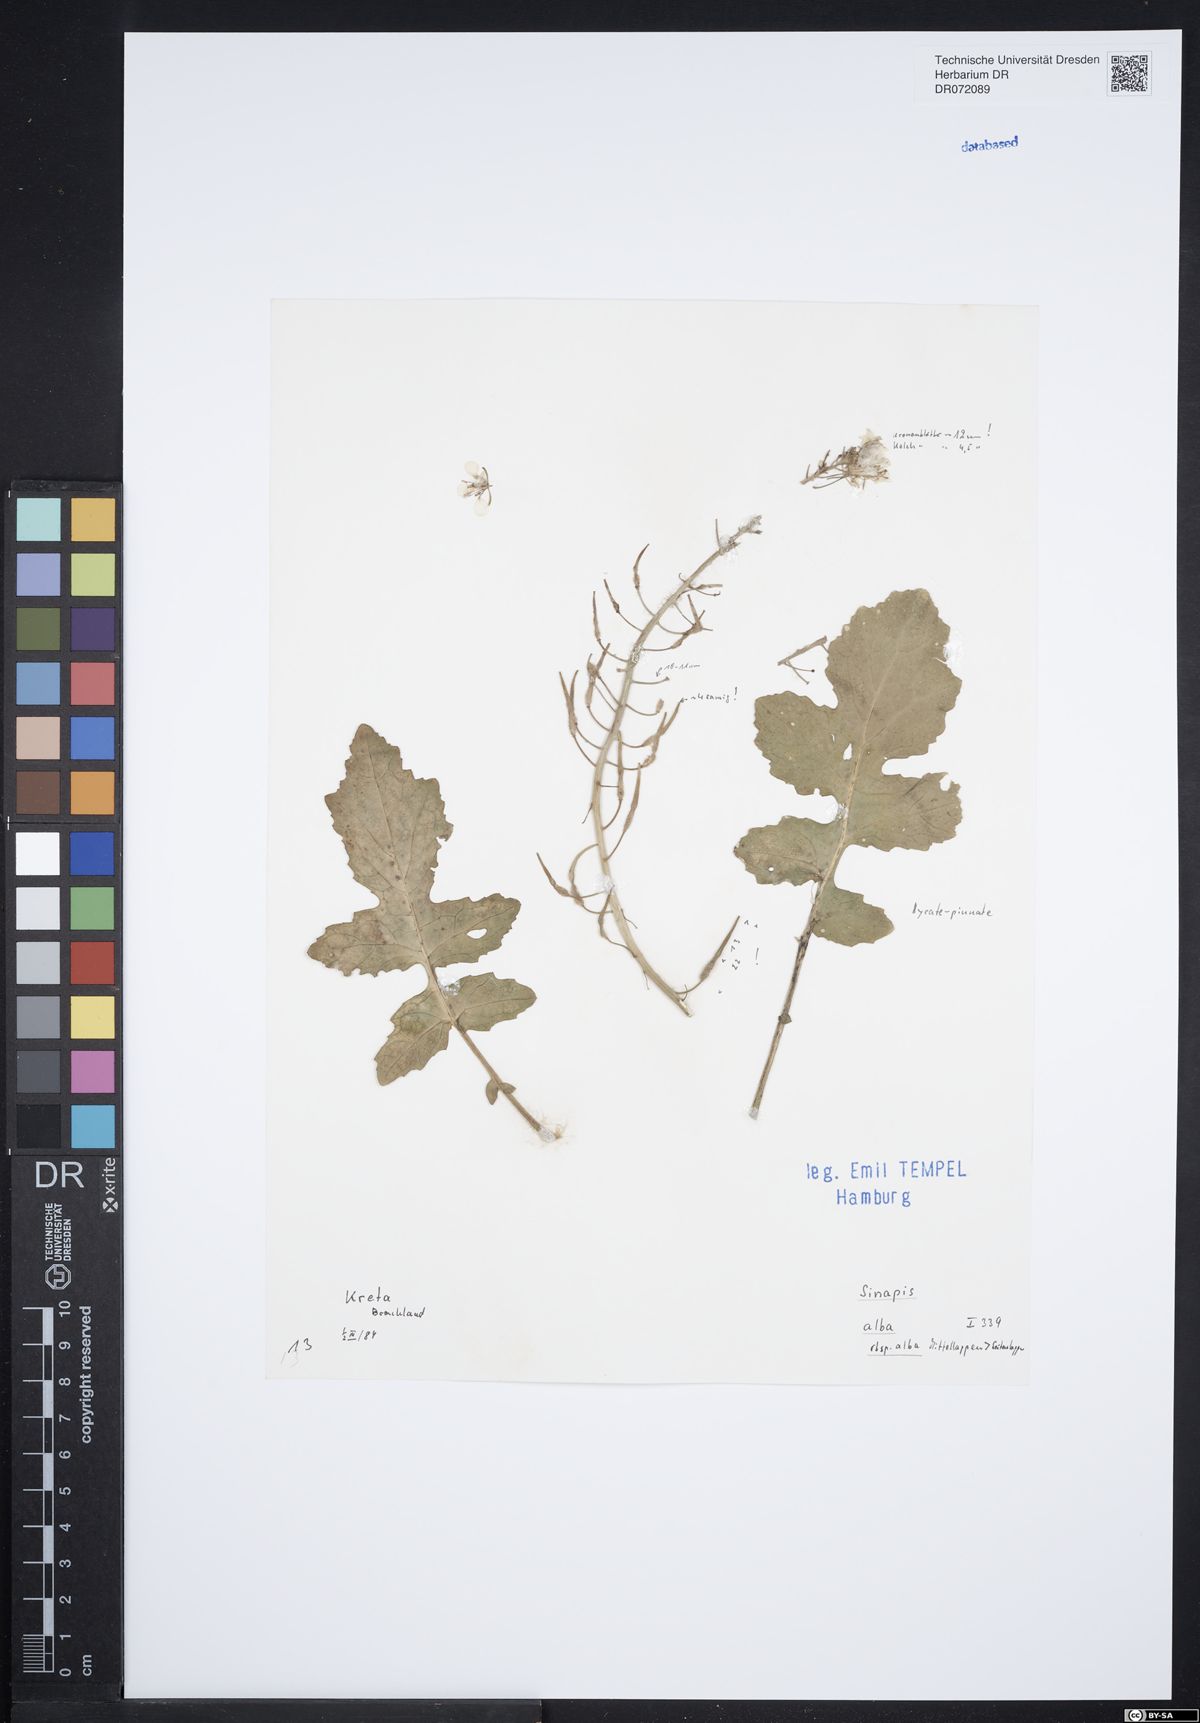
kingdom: Plantae
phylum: Tracheophyta
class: Magnoliopsida
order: Brassicales
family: Brassicaceae
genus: Sinapis
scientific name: Sinapis alba
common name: White mustard
